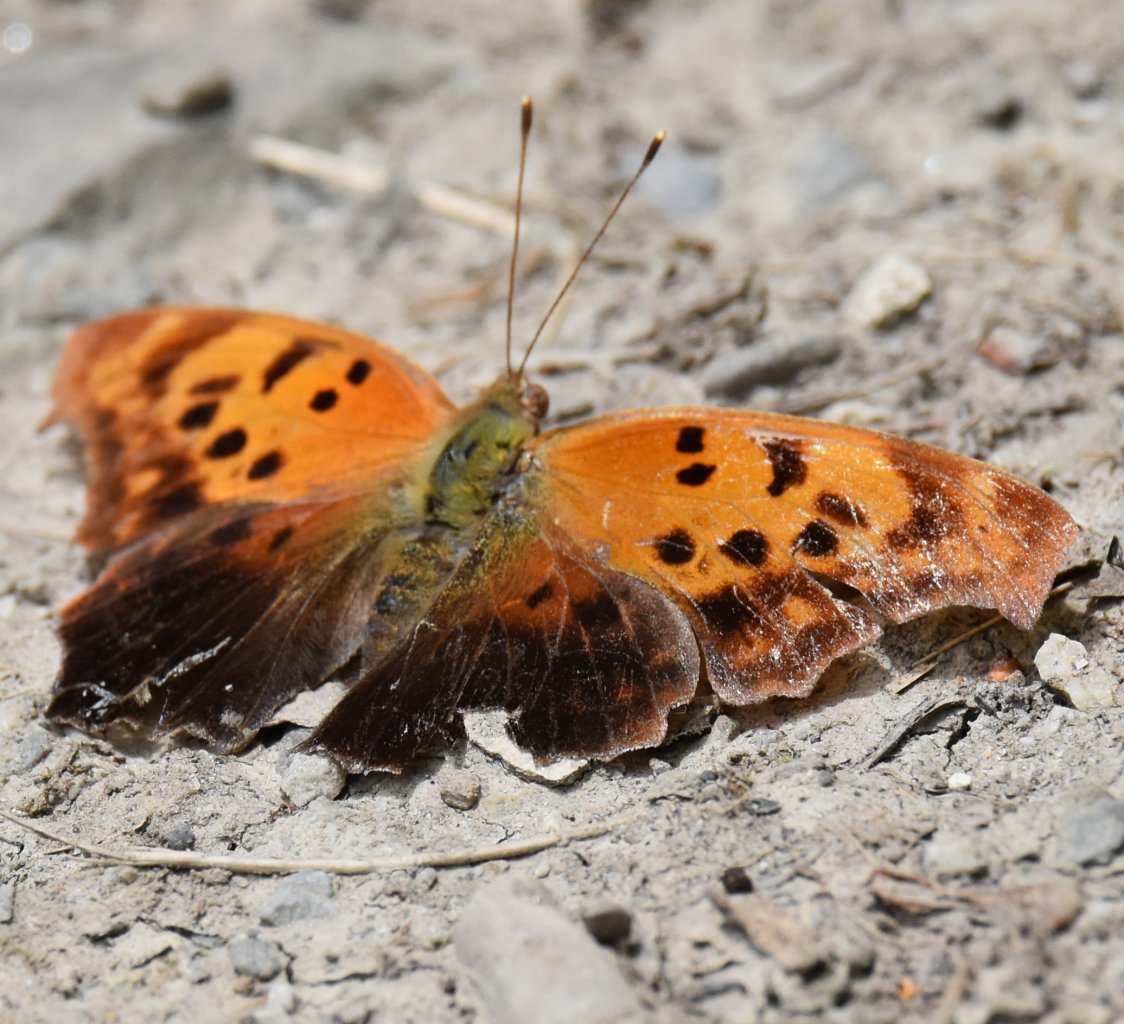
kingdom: Animalia
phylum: Arthropoda
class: Insecta
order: Lepidoptera
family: Nymphalidae
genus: Polygonia
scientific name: Polygonia
